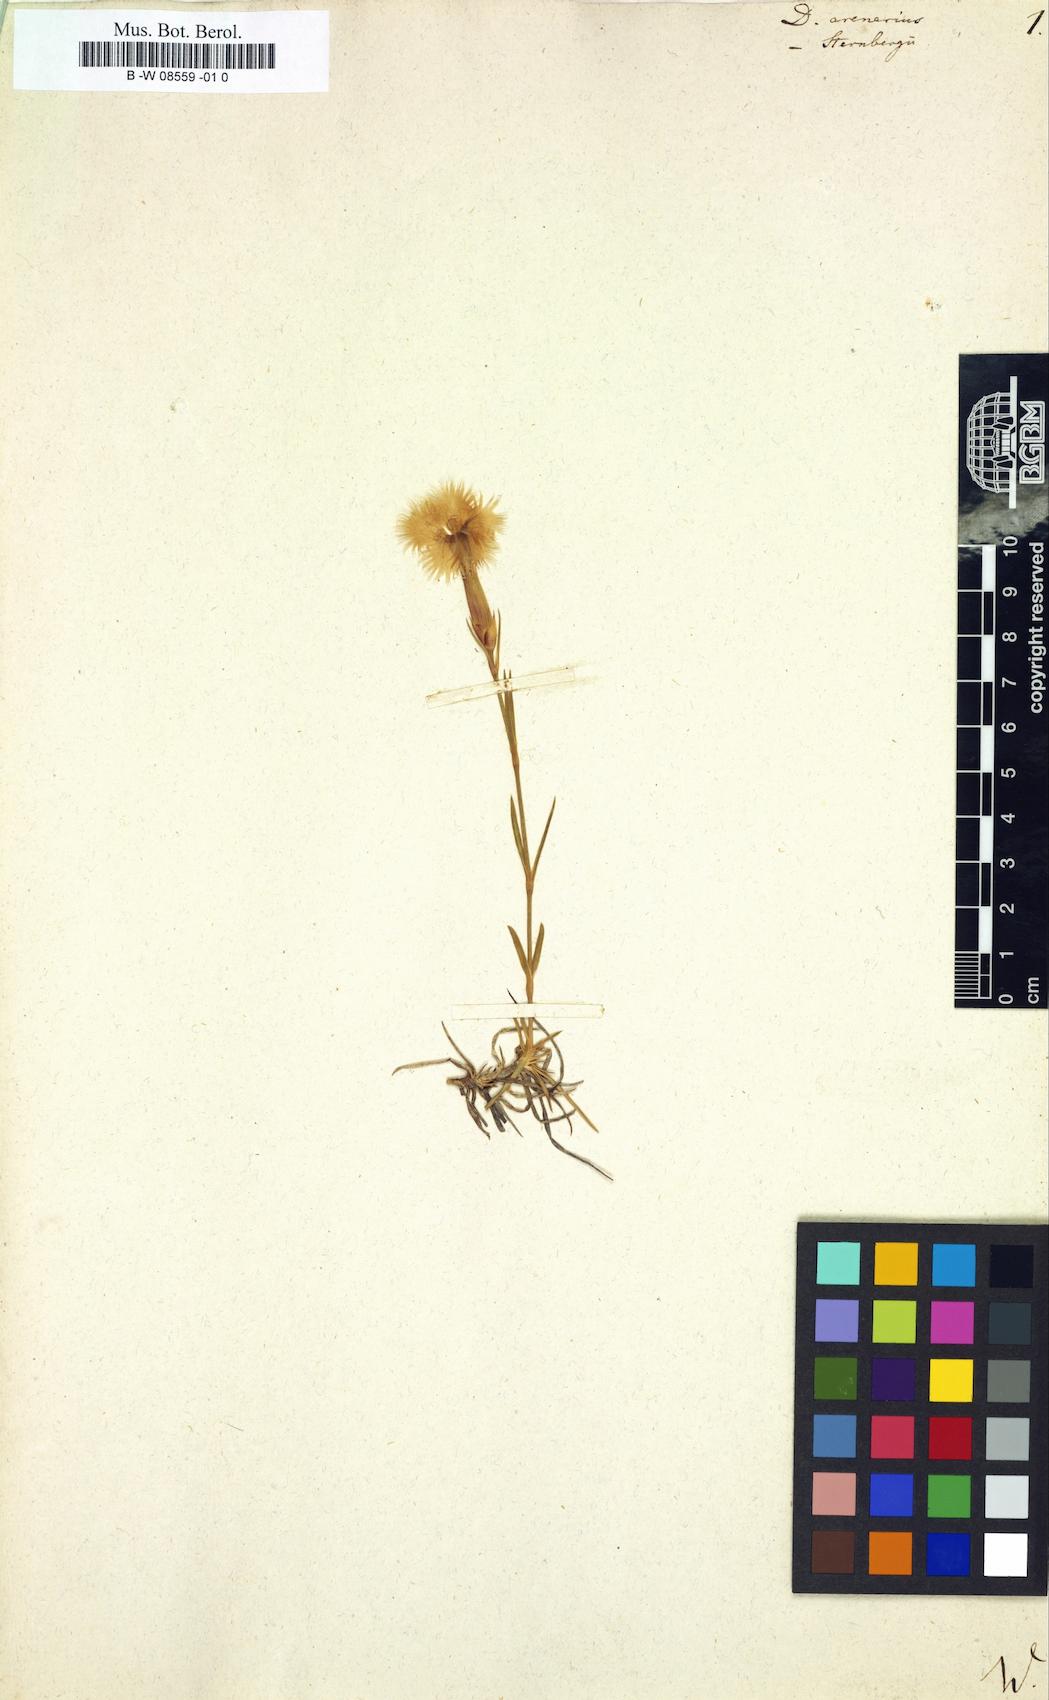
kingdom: Plantae
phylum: Tracheophyta
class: Magnoliopsida
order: Caryophyllales
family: Caryophyllaceae
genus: Dianthus
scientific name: Dianthus arenarius
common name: Stone pink
